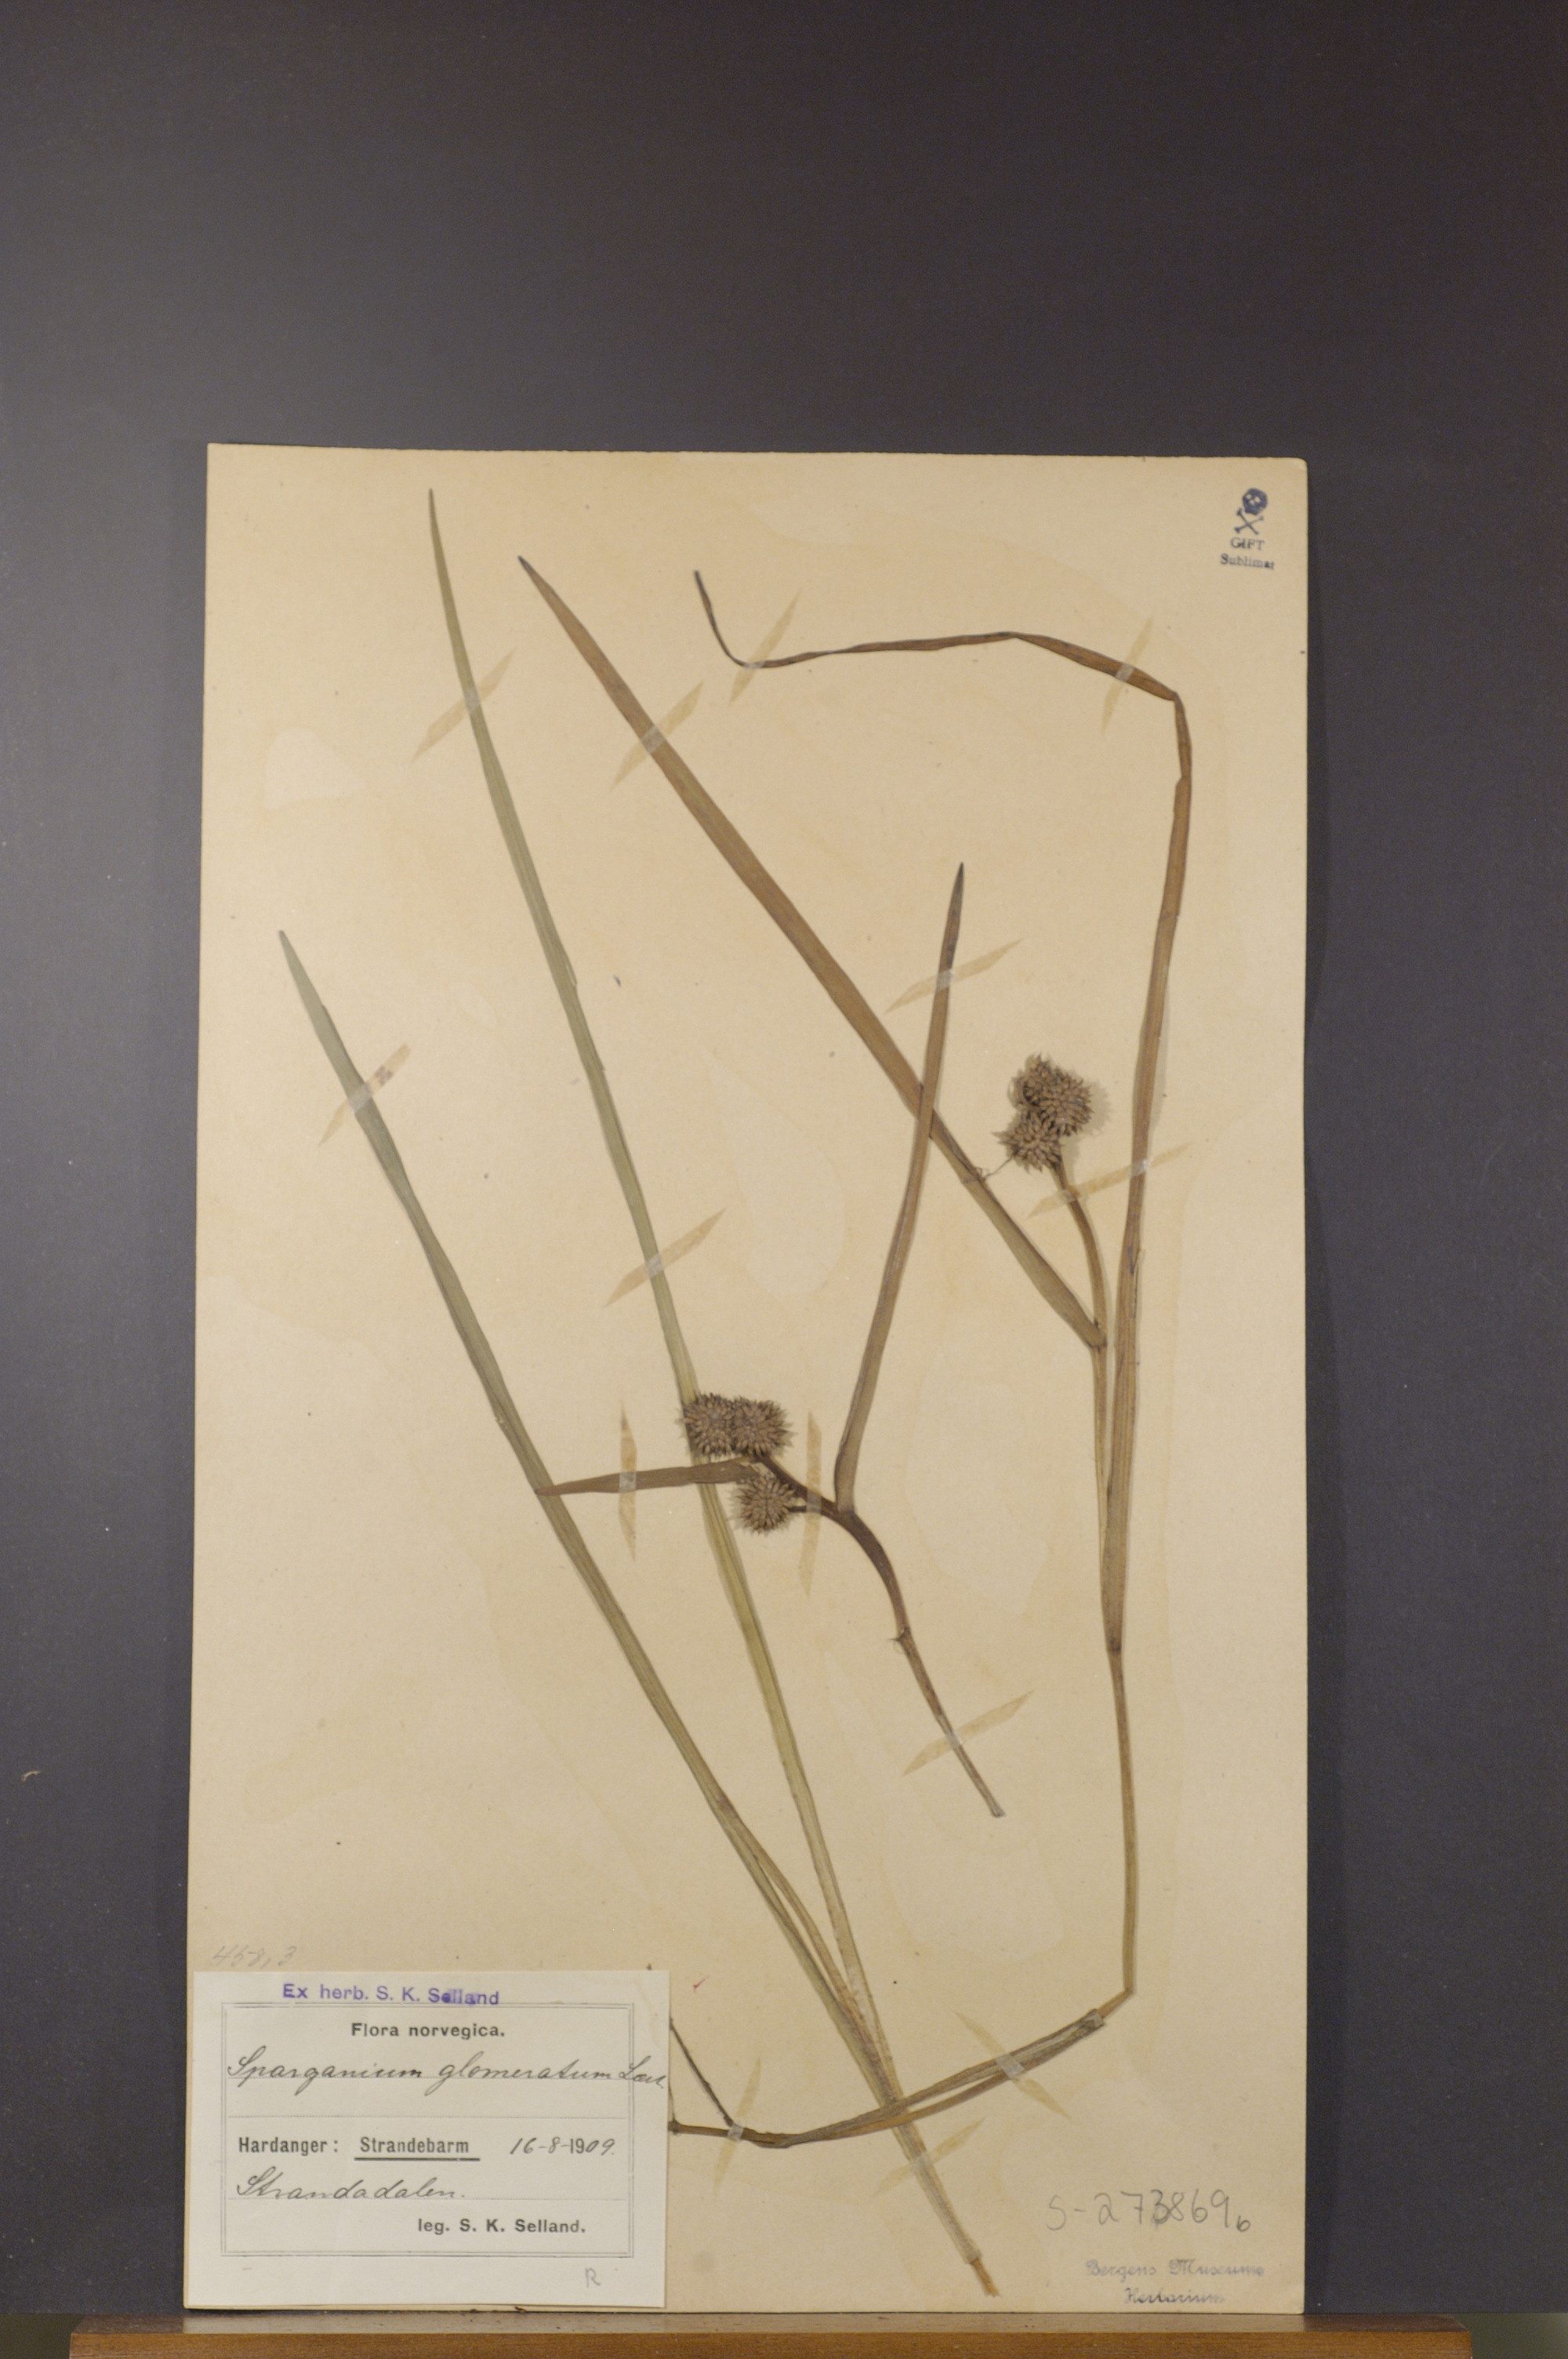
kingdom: Plantae
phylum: Tracheophyta
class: Liliopsida
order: Poales
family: Typhaceae
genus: Sparganium
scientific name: Sparganium glomeratum
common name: Clustered burreed
